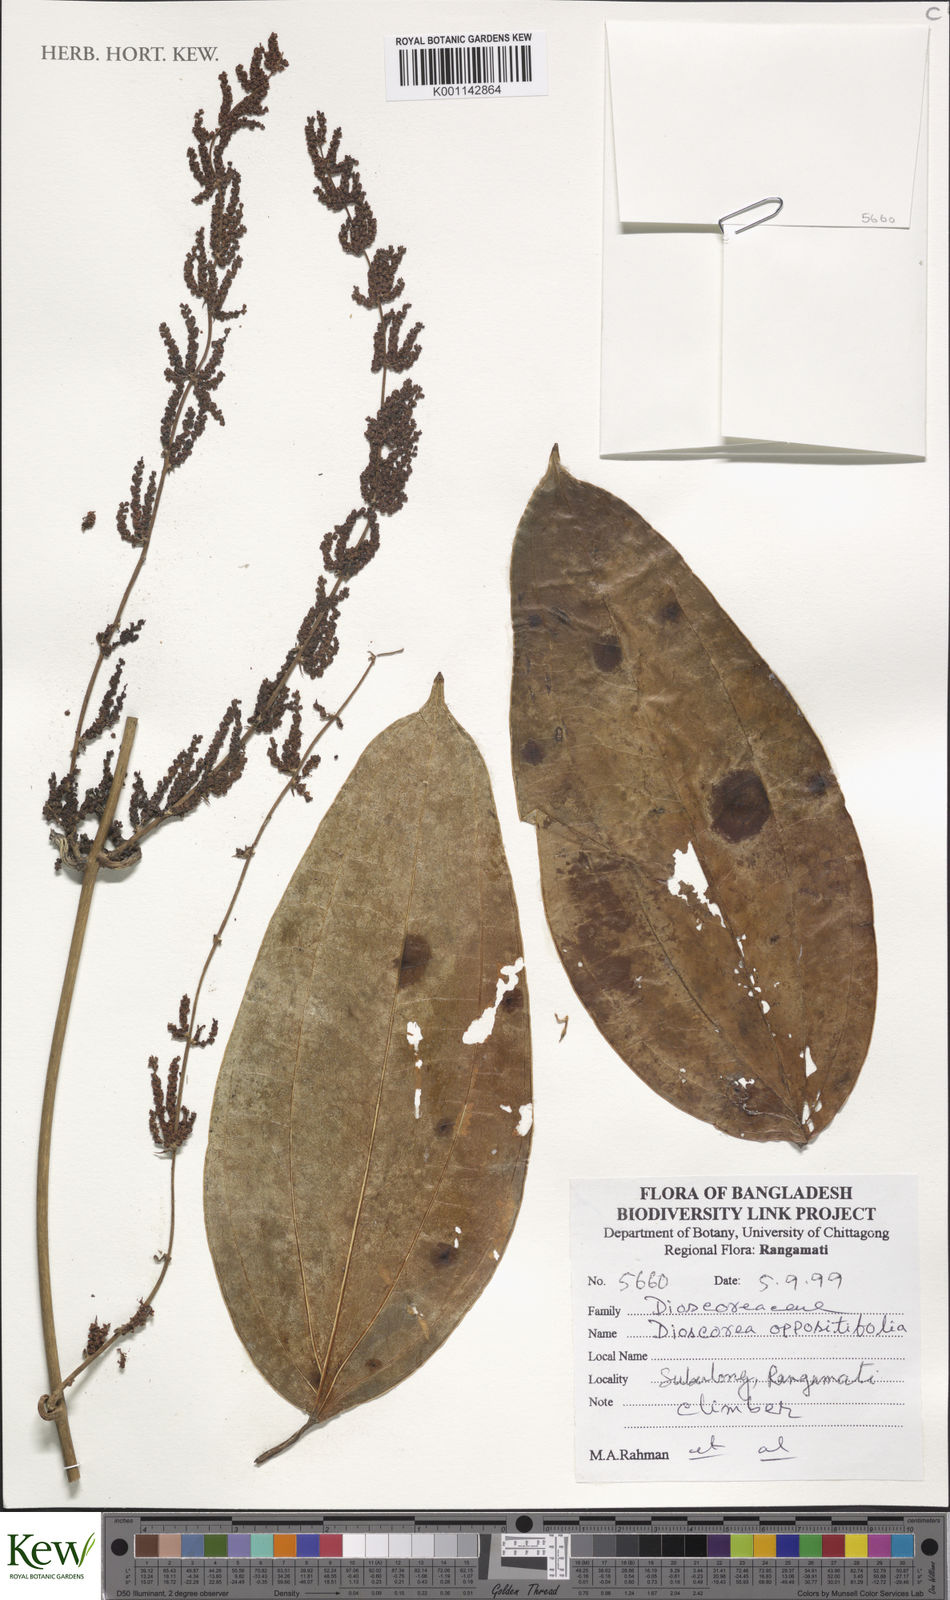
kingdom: Plantae
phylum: Tracheophyta
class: Liliopsida
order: Dioscoreales
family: Dioscoreaceae
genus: Dioscorea
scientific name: Dioscorea oppositifolia
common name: Chinese yam
